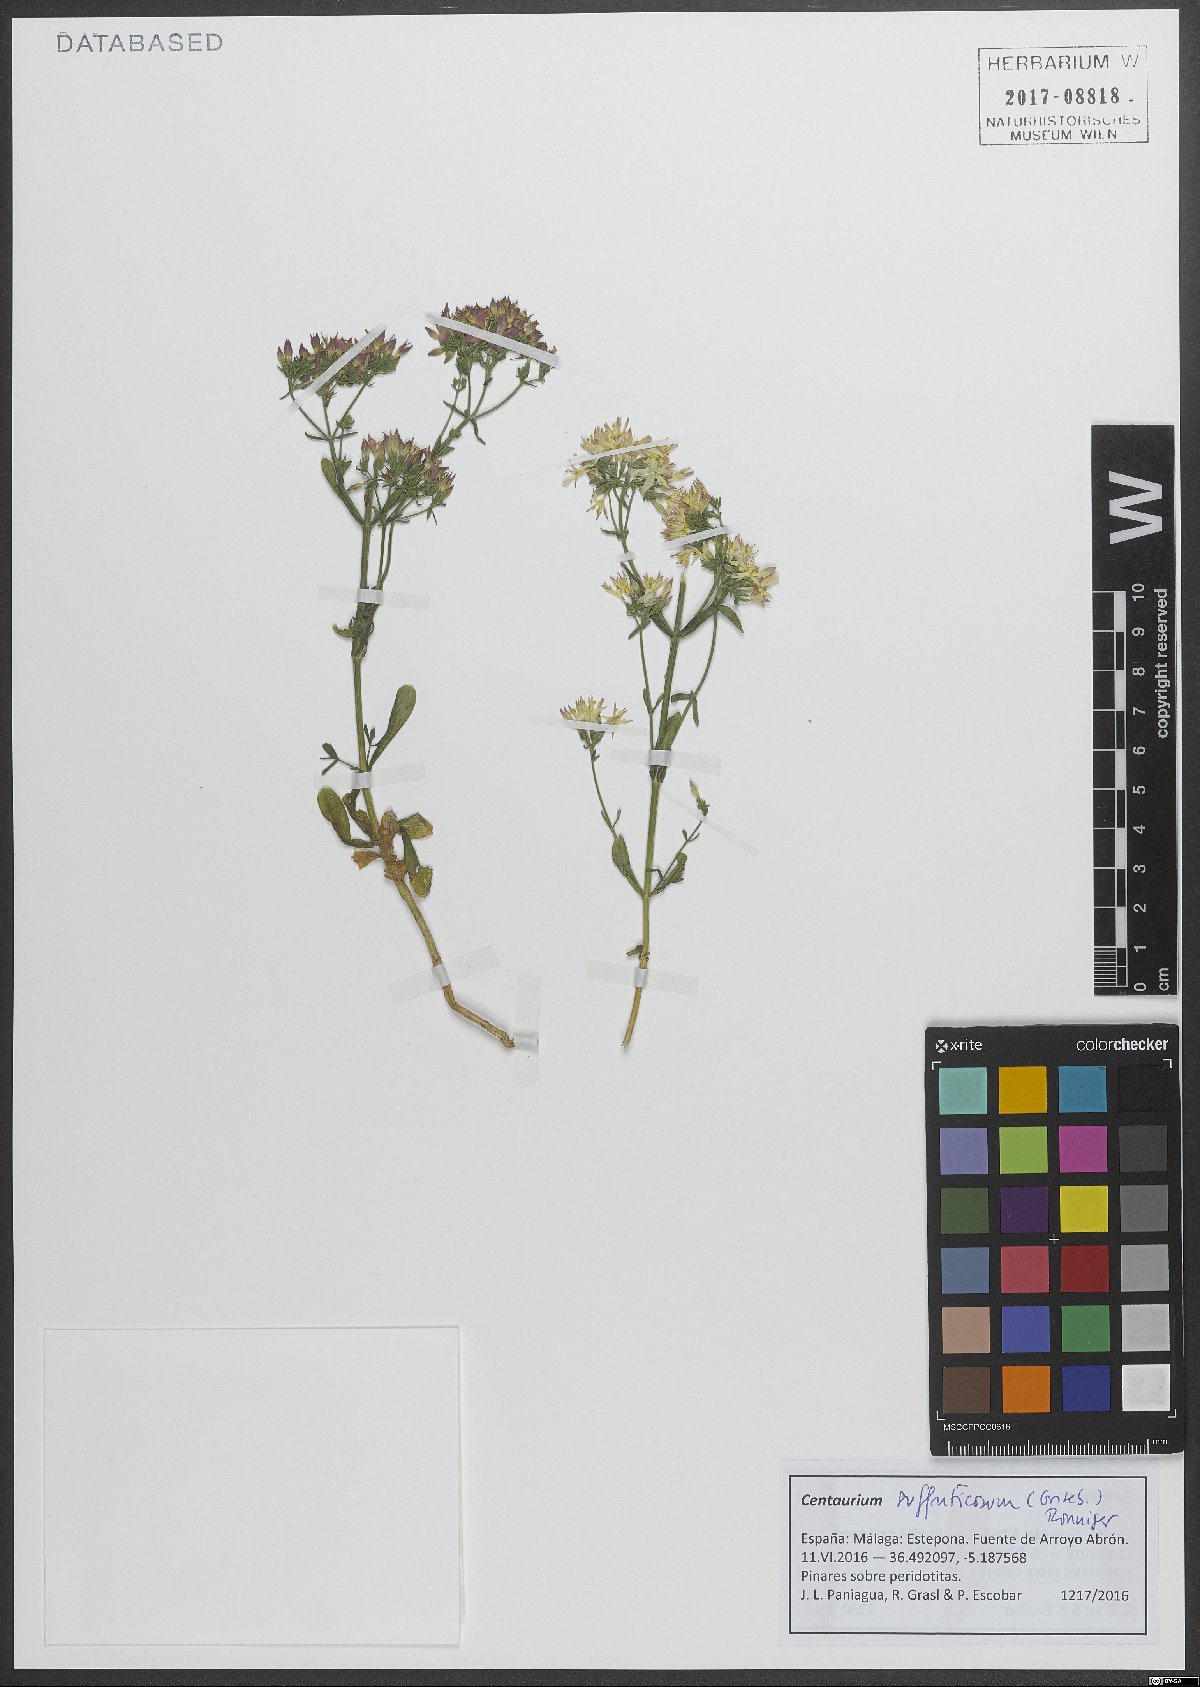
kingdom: Plantae
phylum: Tracheophyta
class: Magnoliopsida
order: Gentianales
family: Gentianaceae
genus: Centaurium
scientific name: Centaurium suffruticosum
